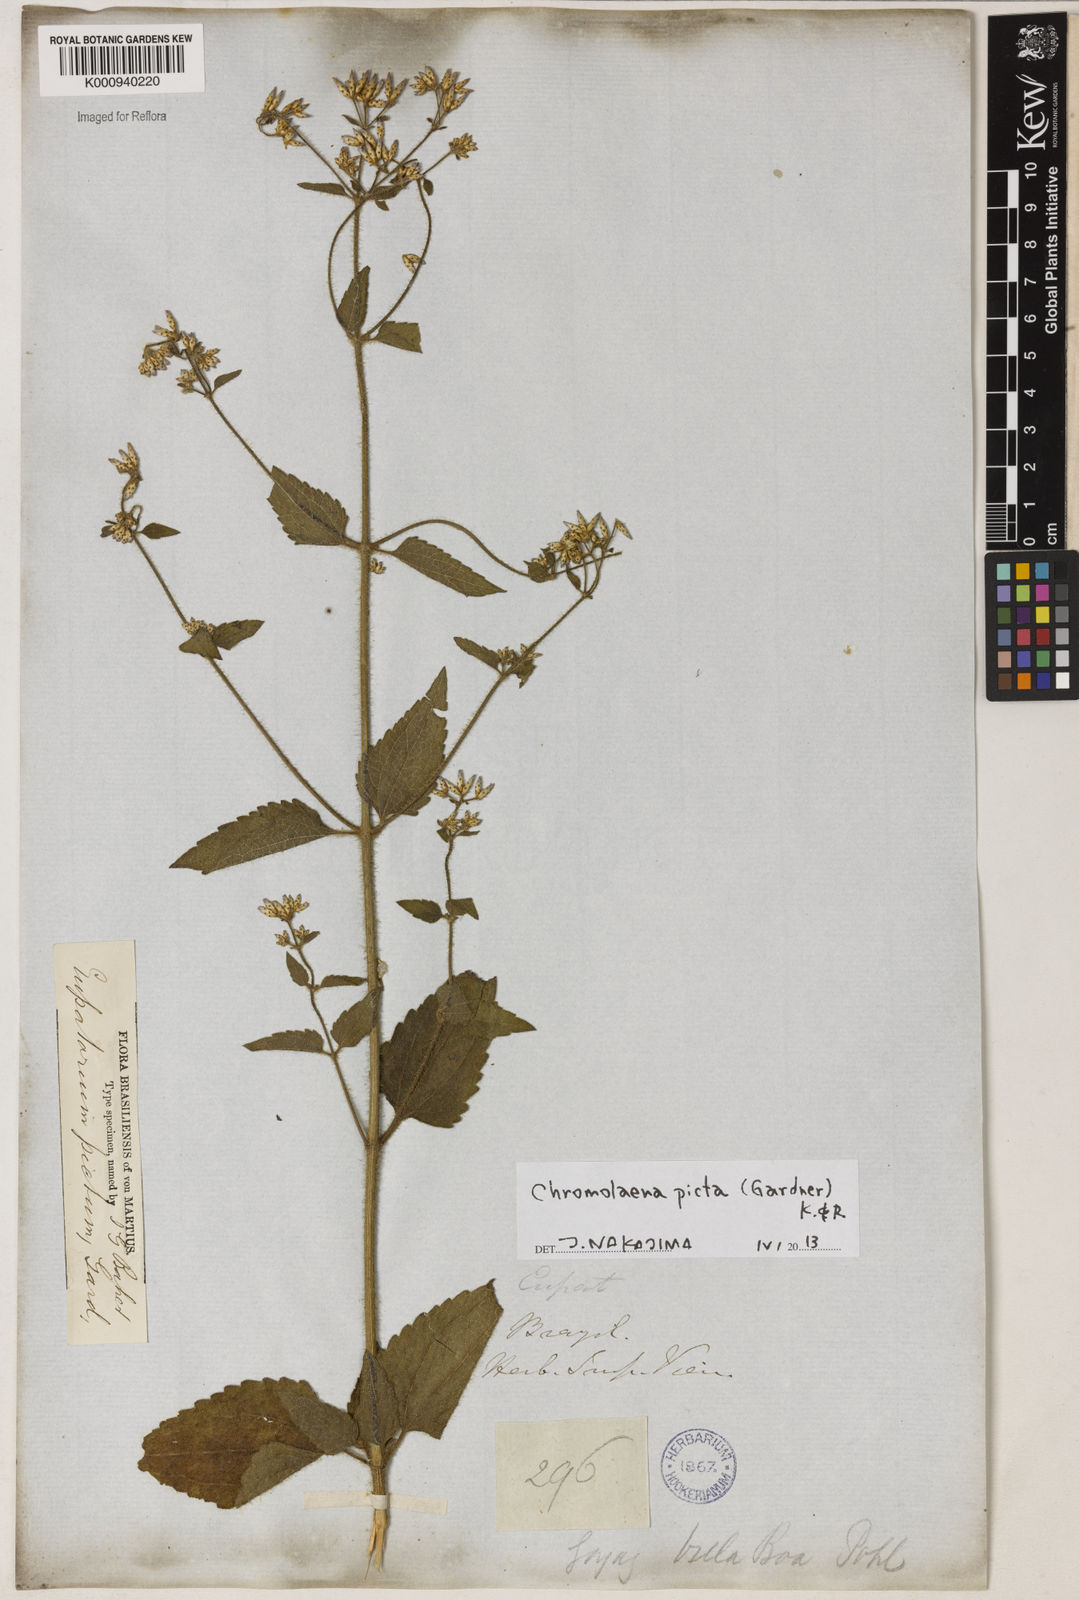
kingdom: Plantae
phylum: Tracheophyta
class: Magnoliopsida
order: Asterales
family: Asteraceae
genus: Chromolaena
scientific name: Chromolaena picta
